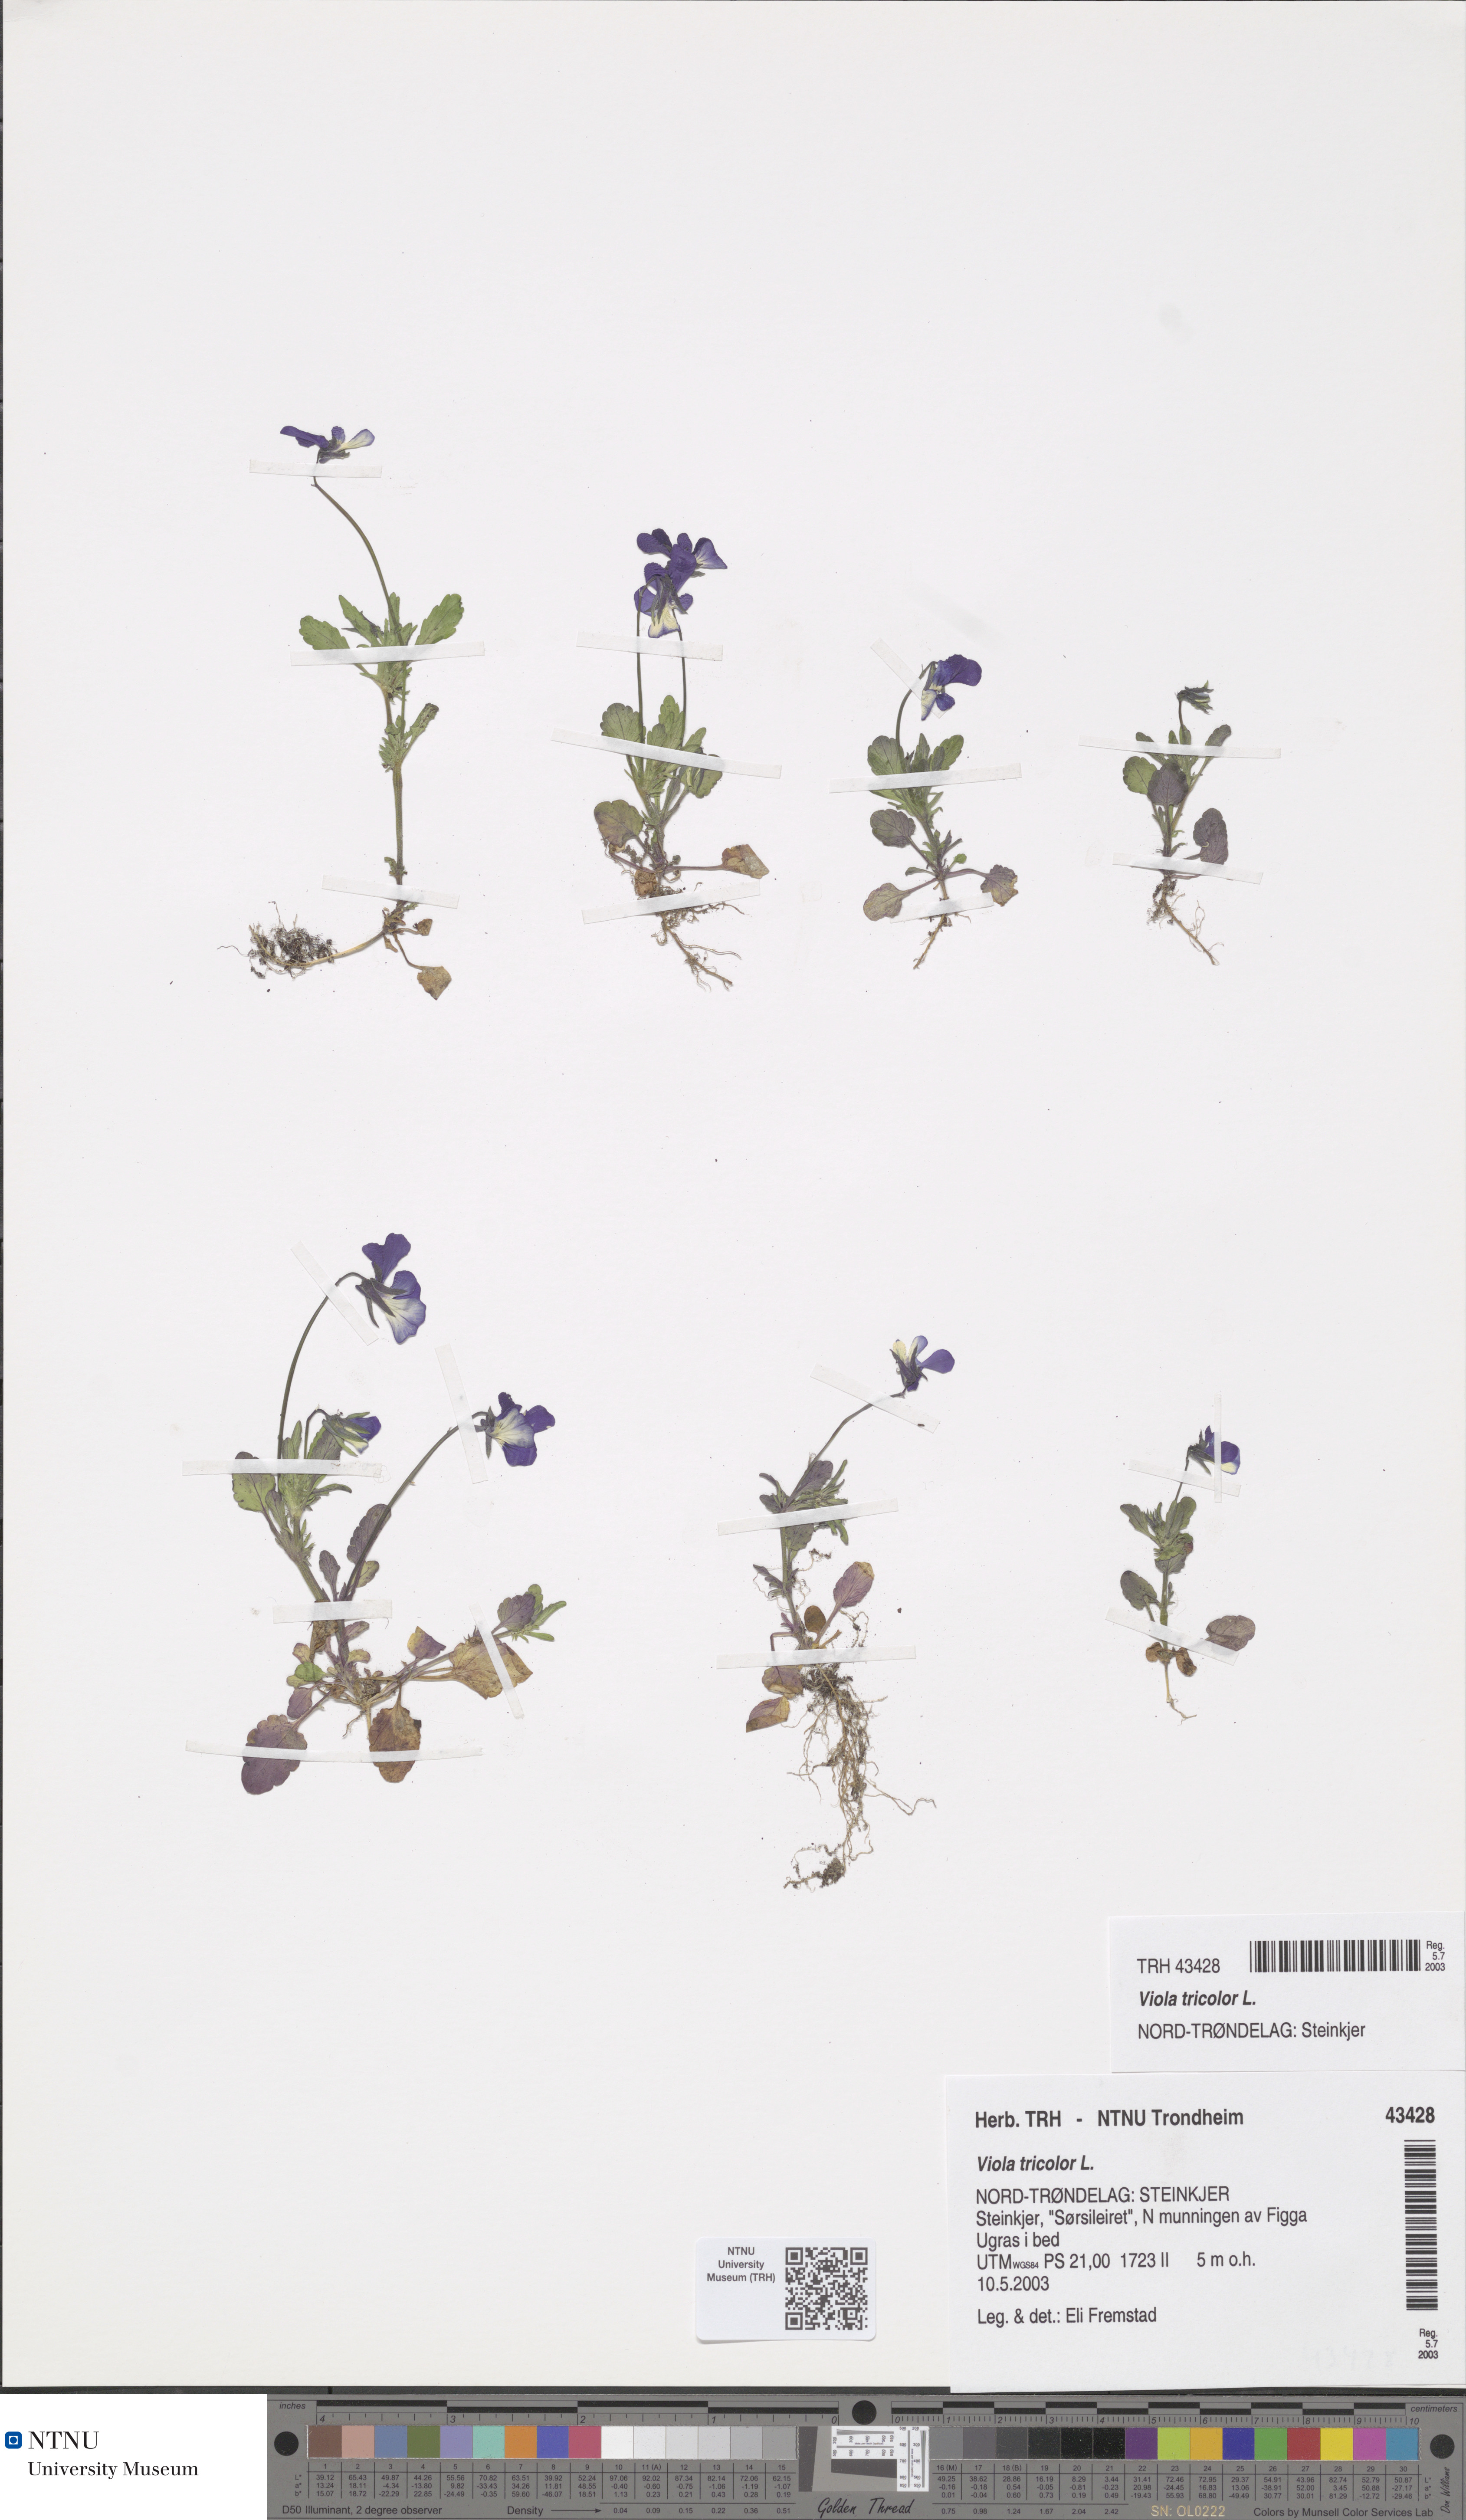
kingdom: Plantae
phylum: Tracheophyta
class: Magnoliopsida
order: Malpighiales
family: Violaceae
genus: Viola
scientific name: Viola tricolor
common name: Pansy
